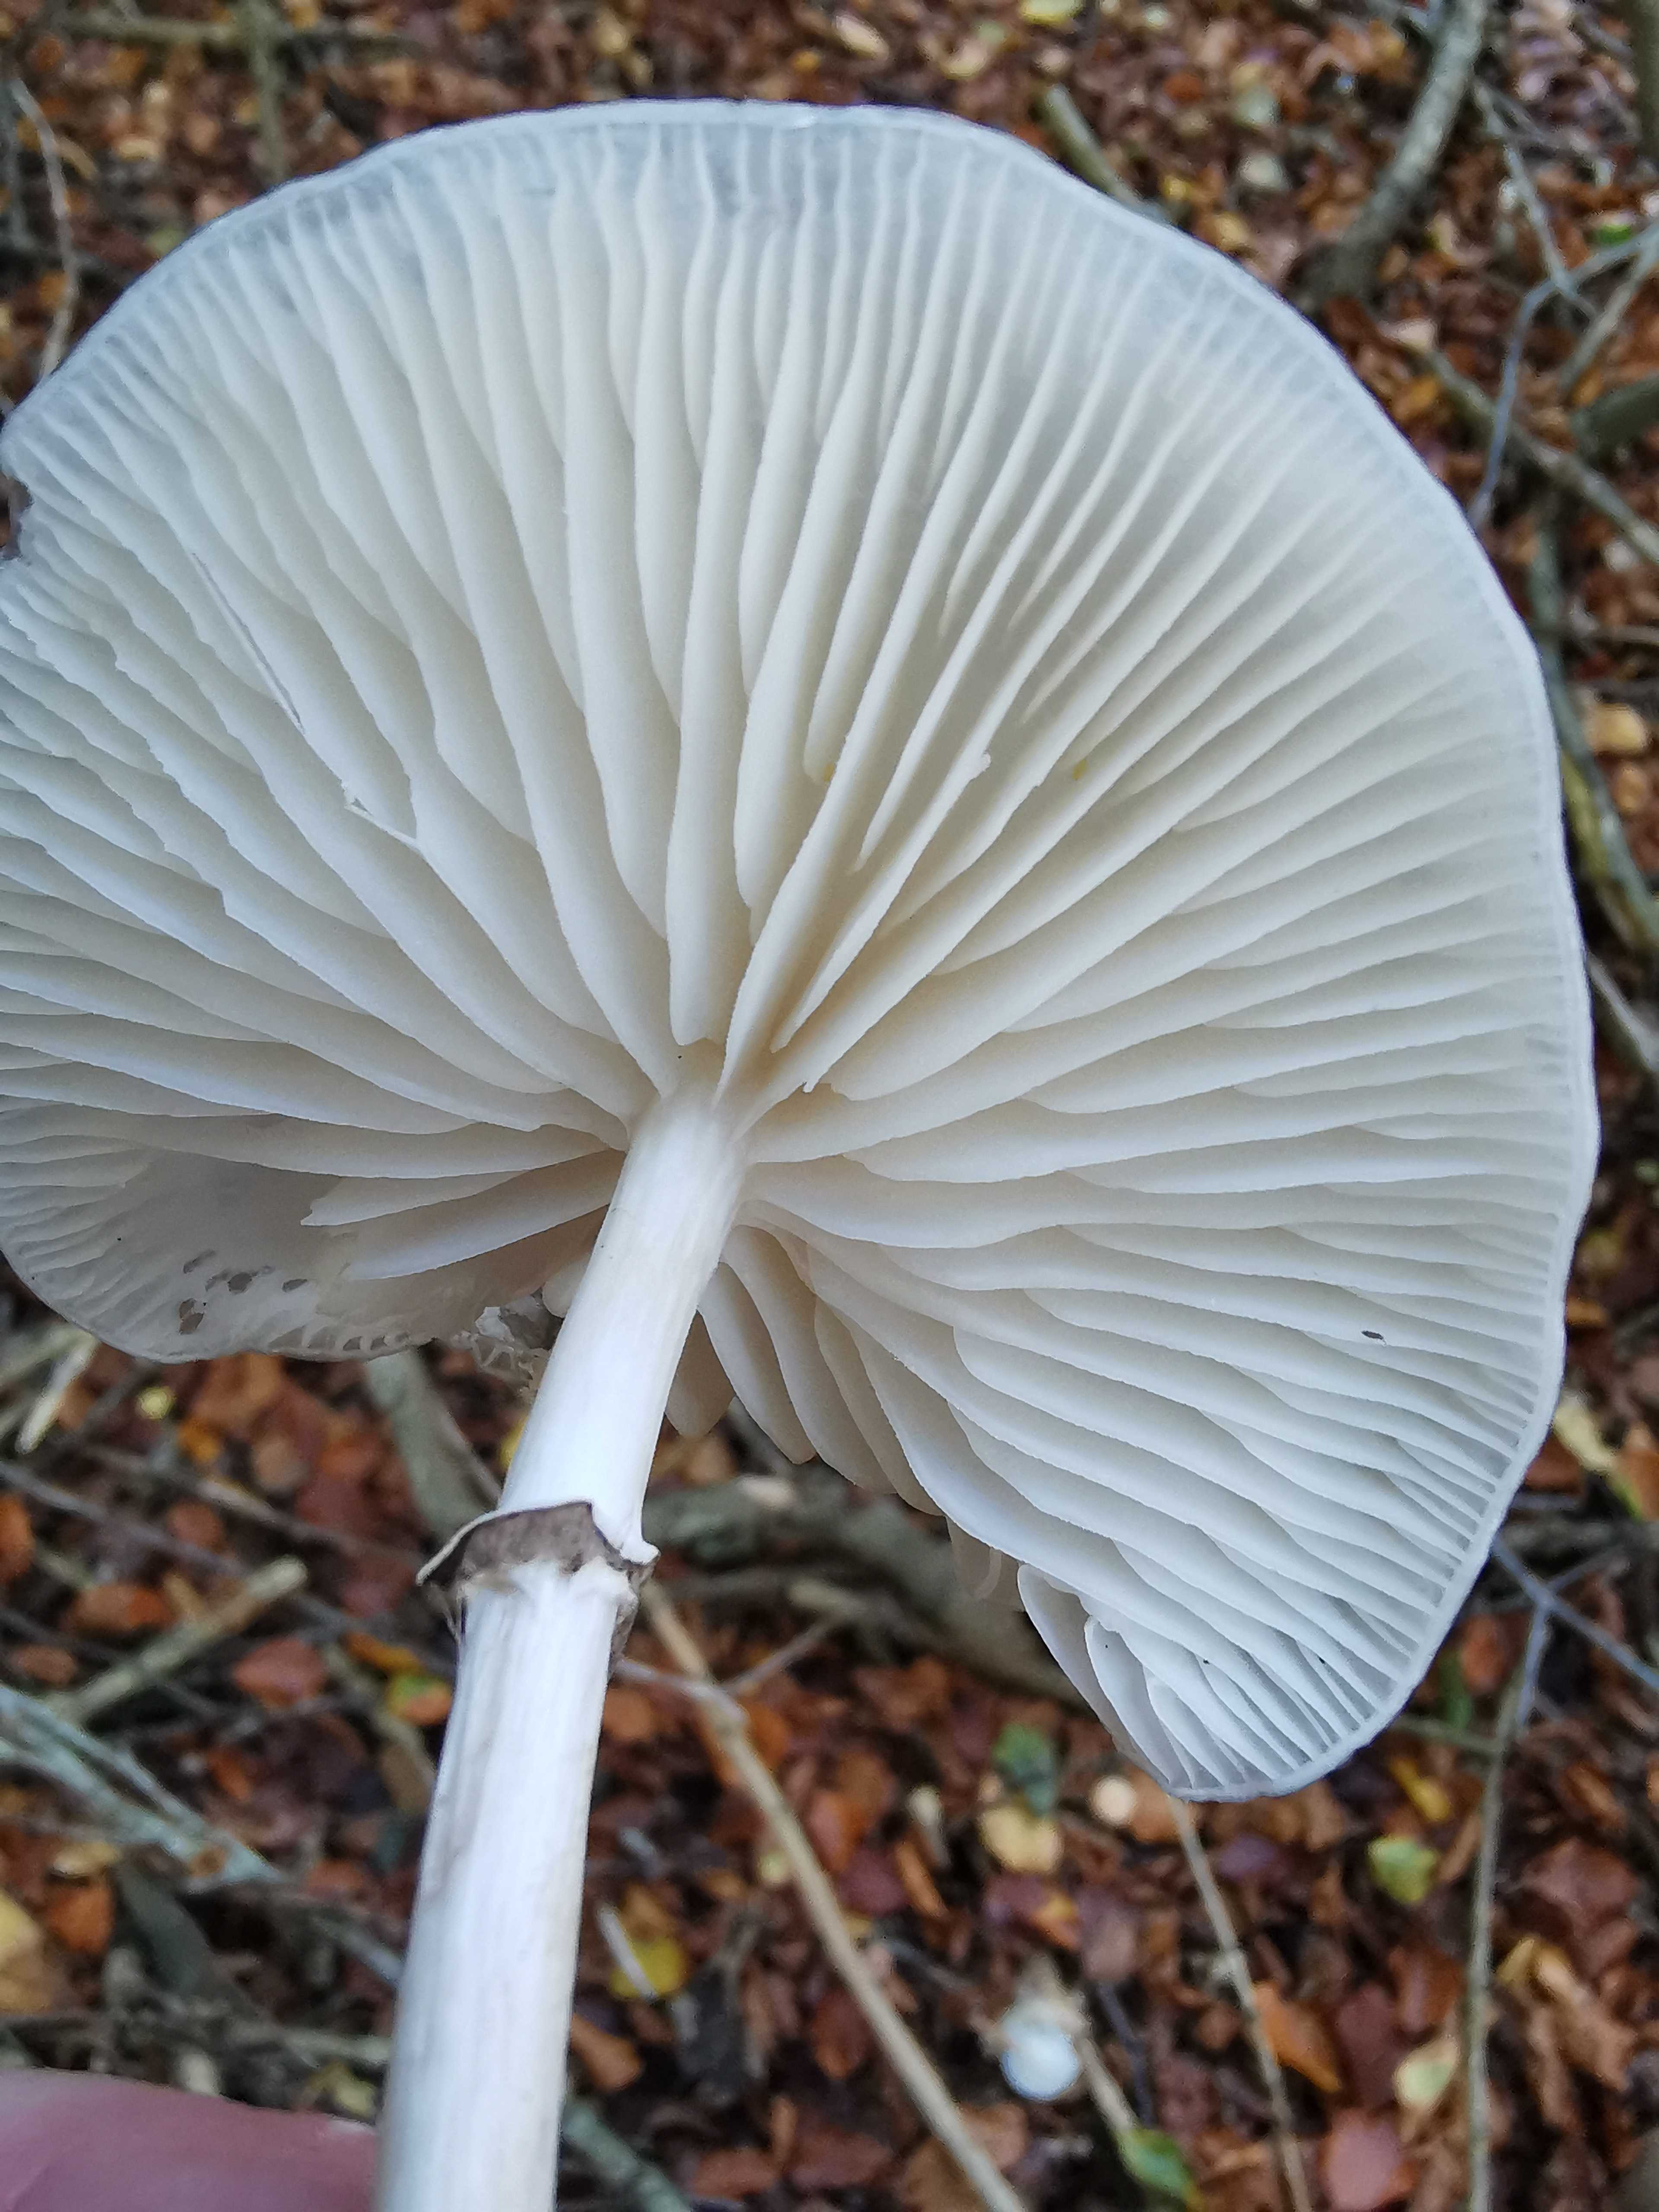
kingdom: Fungi
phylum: Basidiomycota
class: Agaricomycetes
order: Agaricales
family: Physalacriaceae
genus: Mucidula
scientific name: Mucidula mucida
